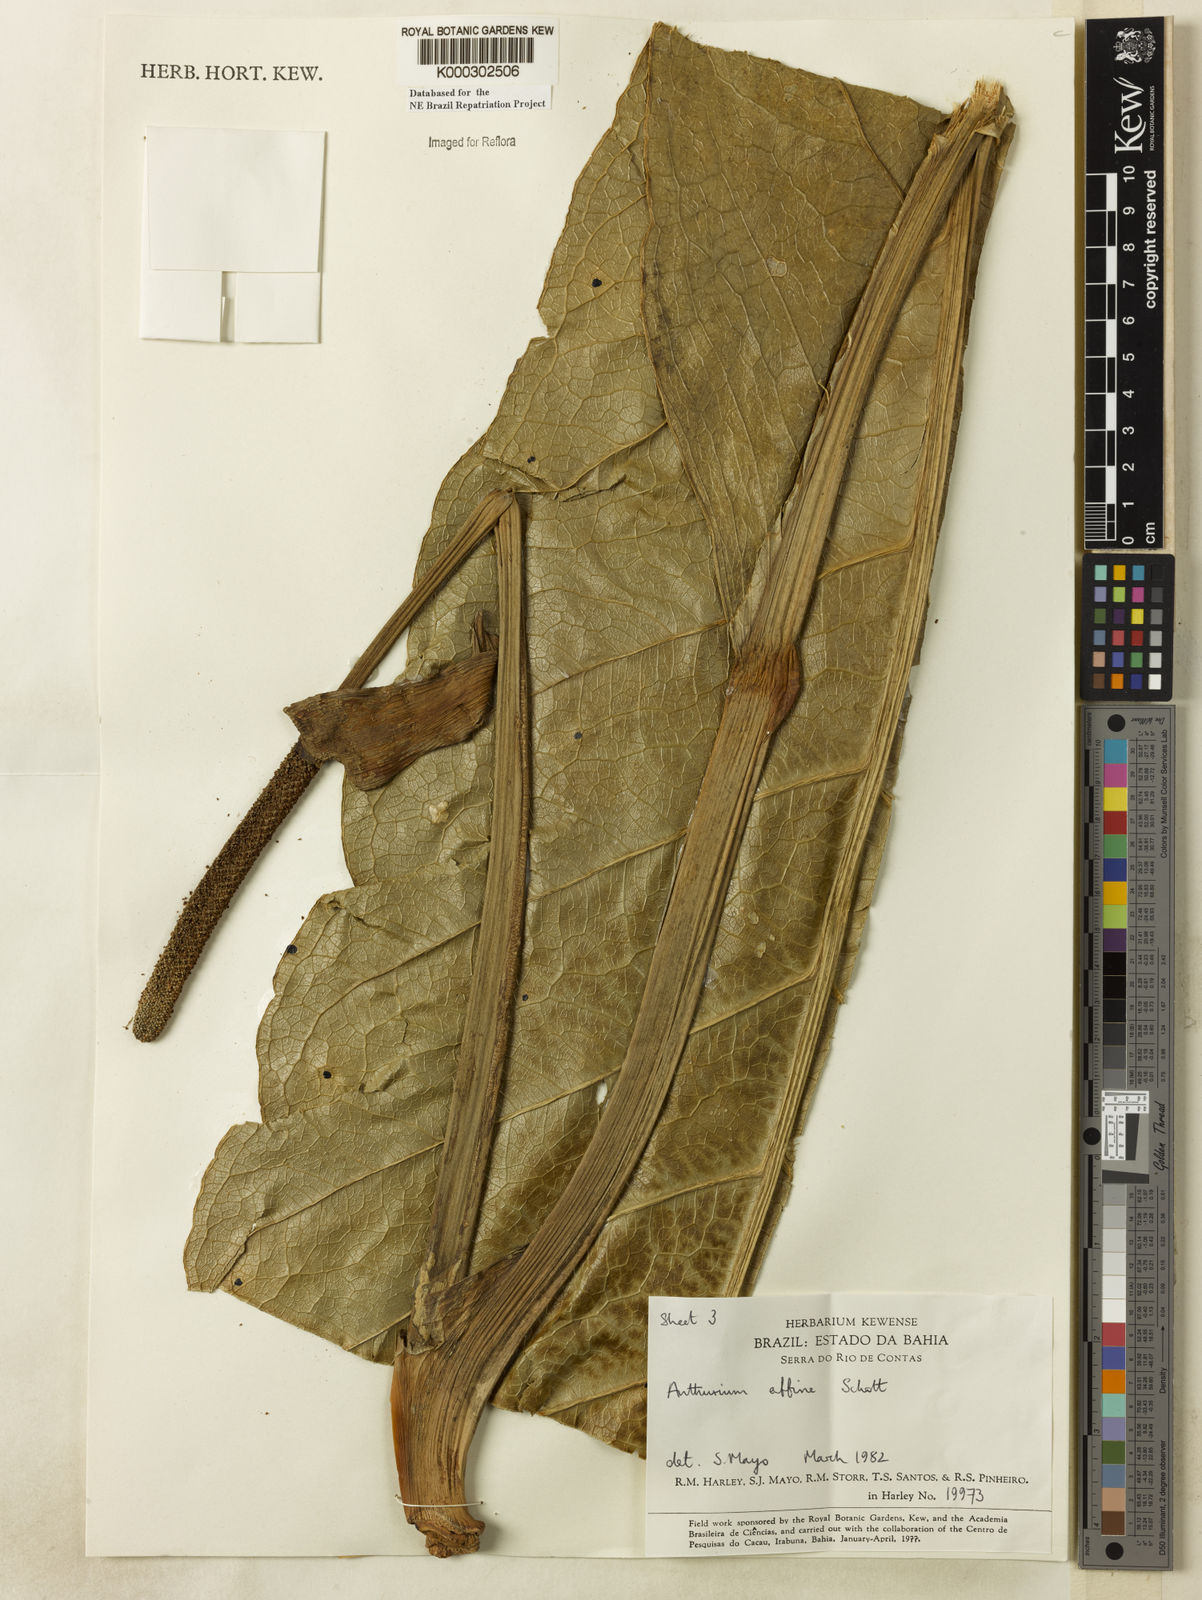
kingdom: Plantae
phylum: Tracheophyta
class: Liliopsida
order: Alismatales
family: Araceae
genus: Anthurium
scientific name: Anthurium affine
